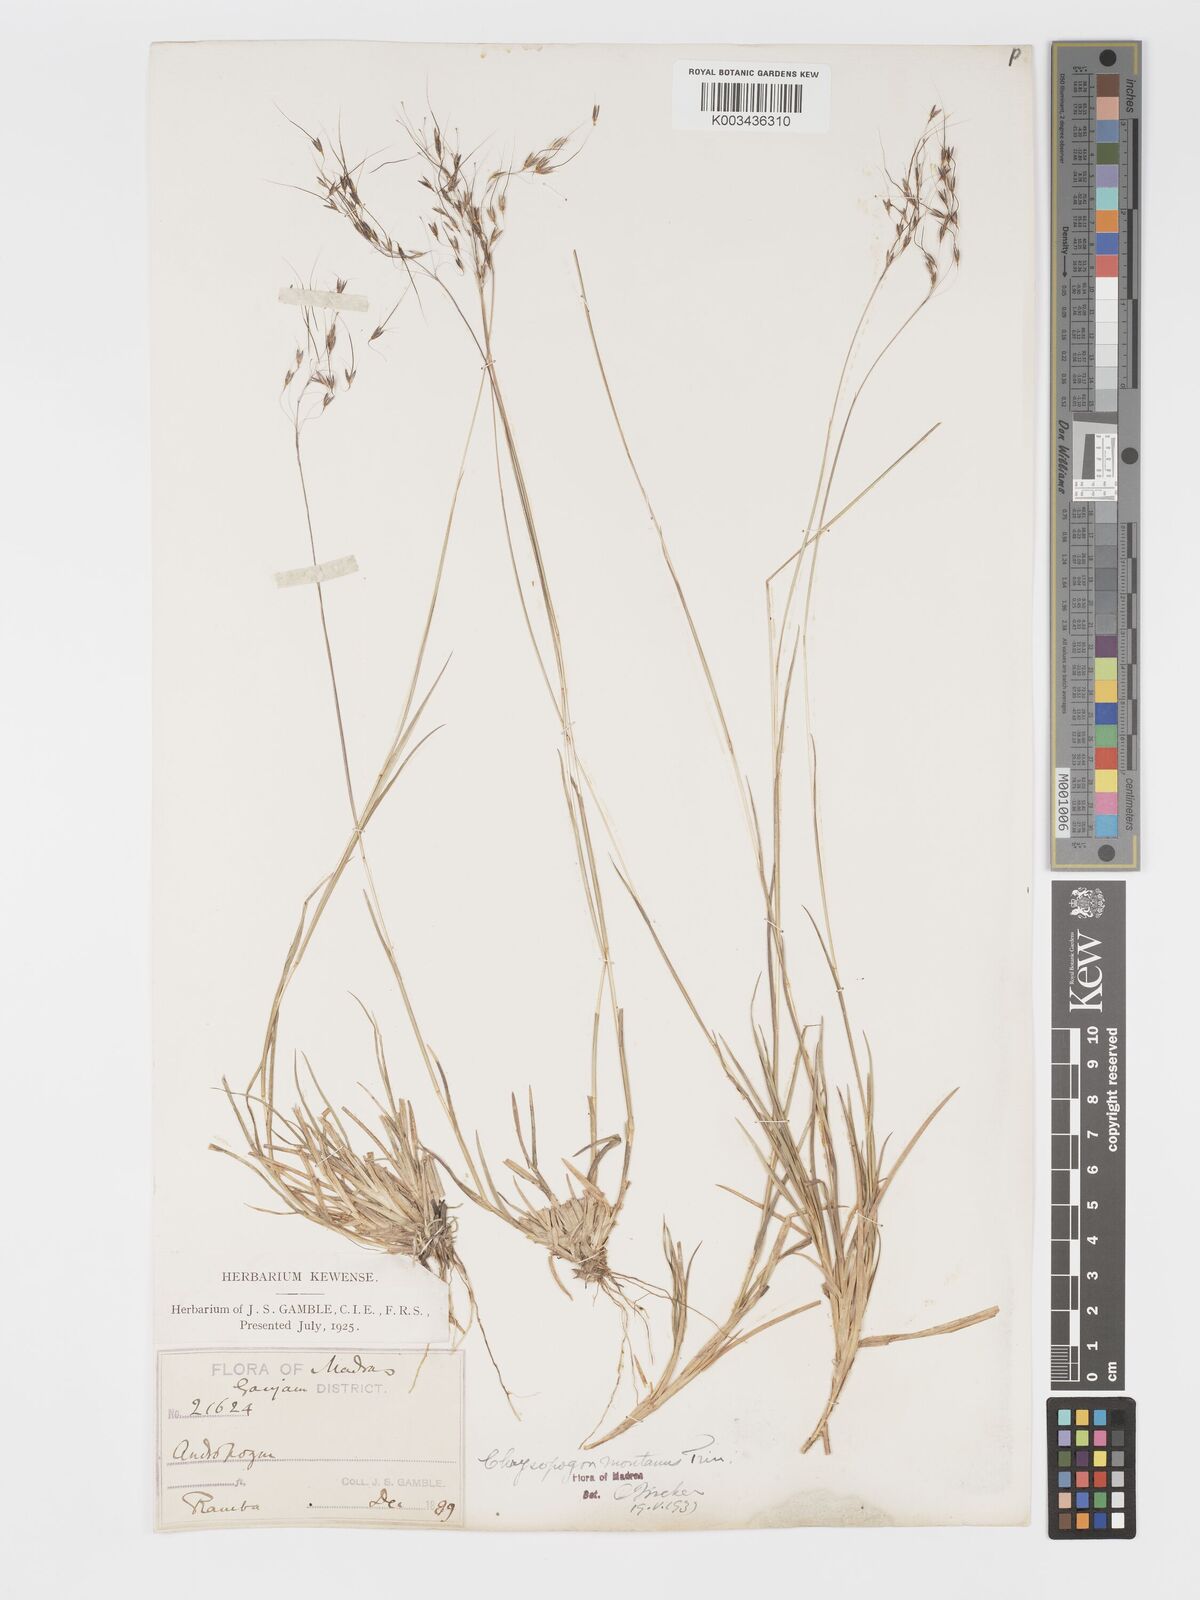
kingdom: Plantae
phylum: Tracheophyta
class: Liliopsida
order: Poales
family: Poaceae
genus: Chrysopogon
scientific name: Chrysopogon fulvus
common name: Red false beardgrass
